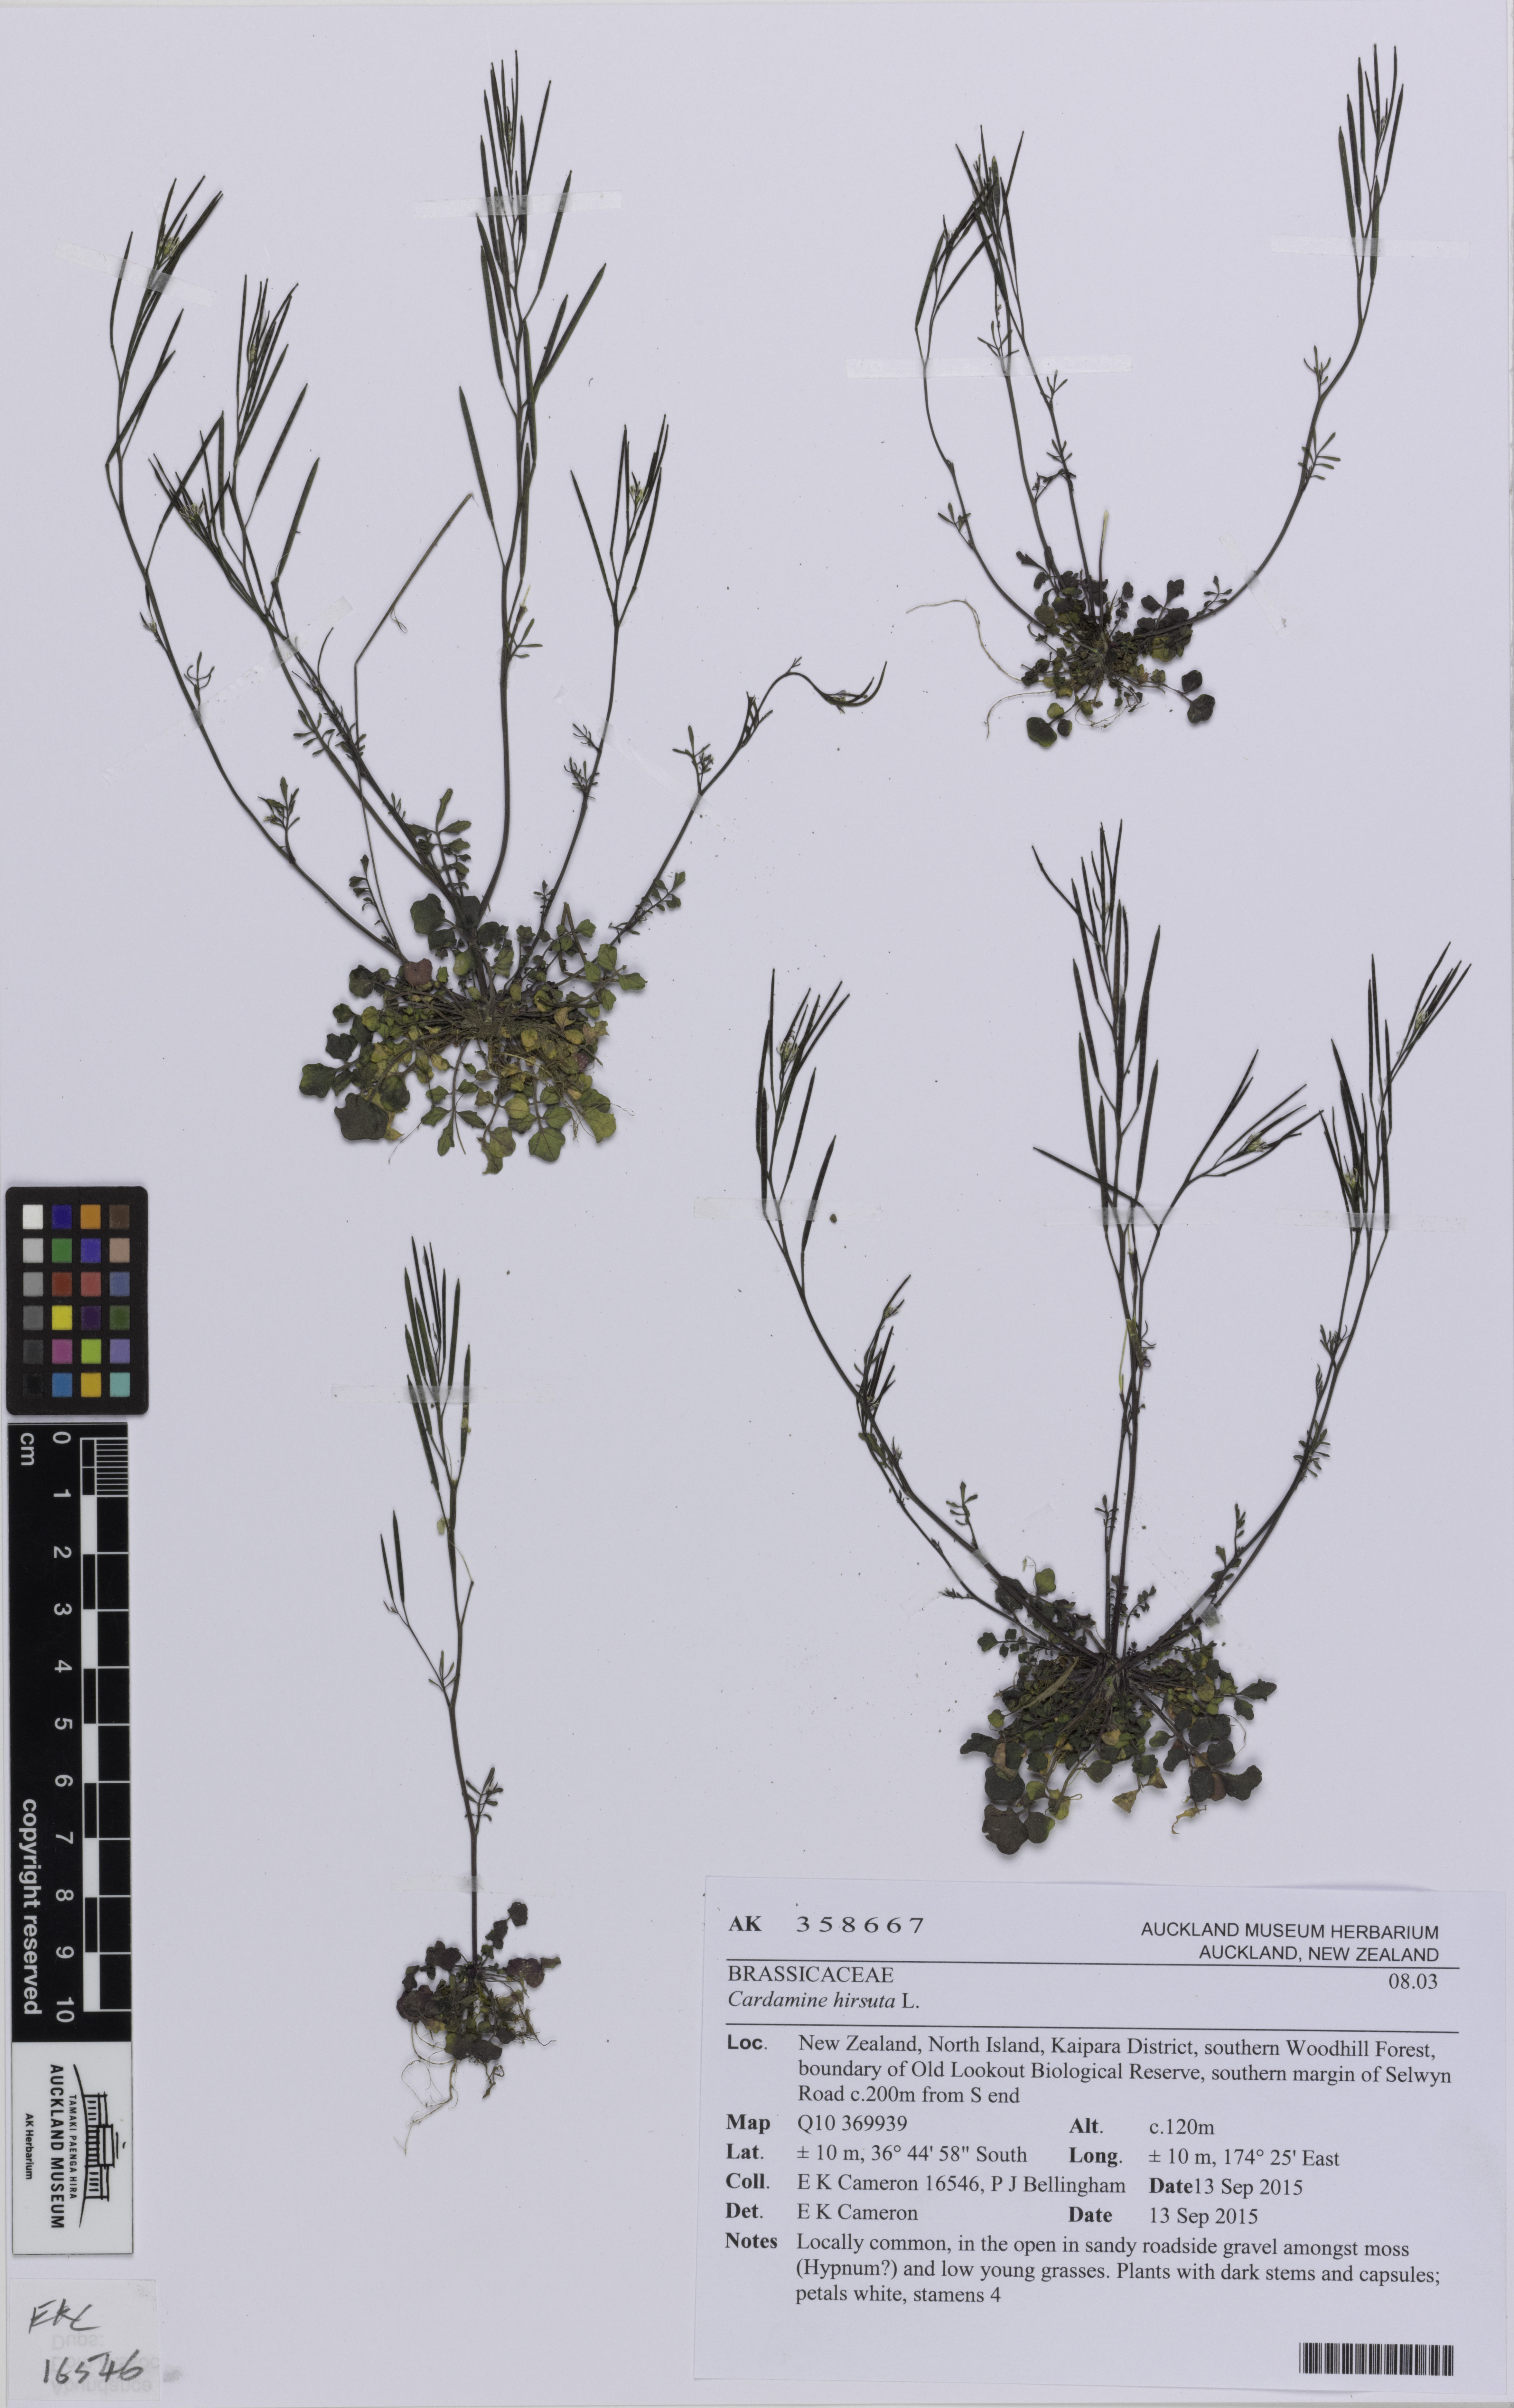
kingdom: Plantae
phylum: Tracheophyta
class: Magnoliopsida
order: Brassicales
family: Brassicaceae
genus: Cardamine
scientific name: Cardamine hirsuta
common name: Hairy bittercress
